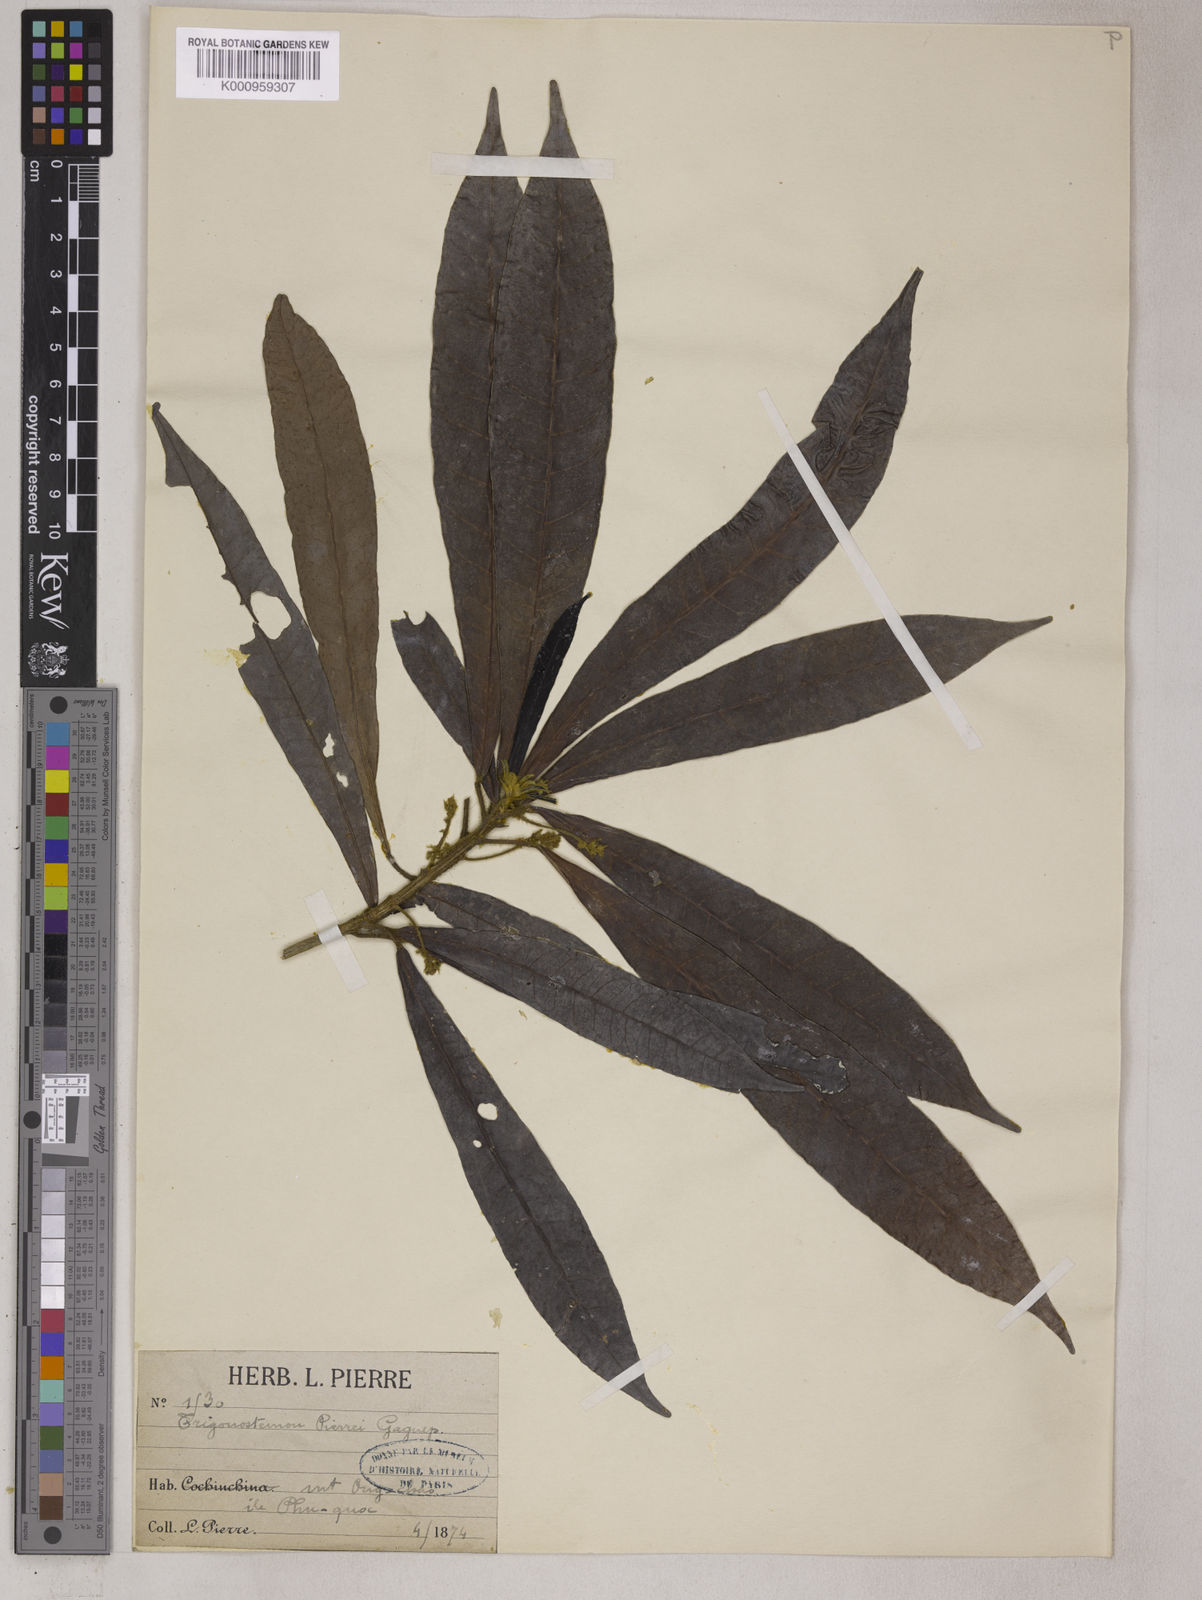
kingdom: Plantae
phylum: Tracheophyta
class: Magnoliopsida
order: Malpighiales
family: Euphorbiaceae
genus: Trigonostemon
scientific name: Trigonostemon murtonii
